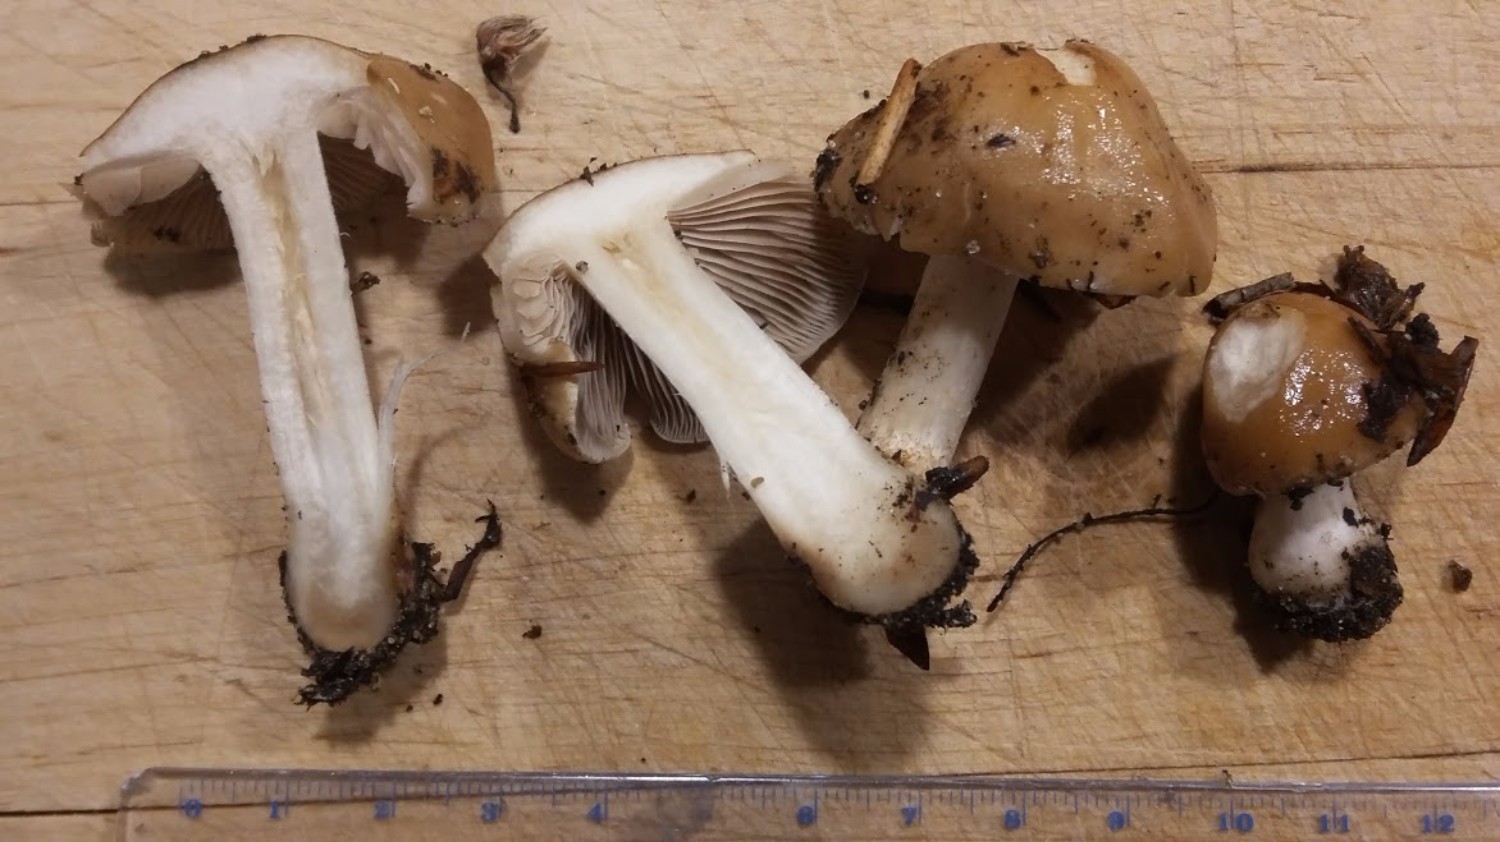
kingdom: Fungi
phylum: Basidiomycota
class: Agaricomycetes
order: Agaricales
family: Hymenogastraceae
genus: Hebeloma
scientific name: Hebeloma
